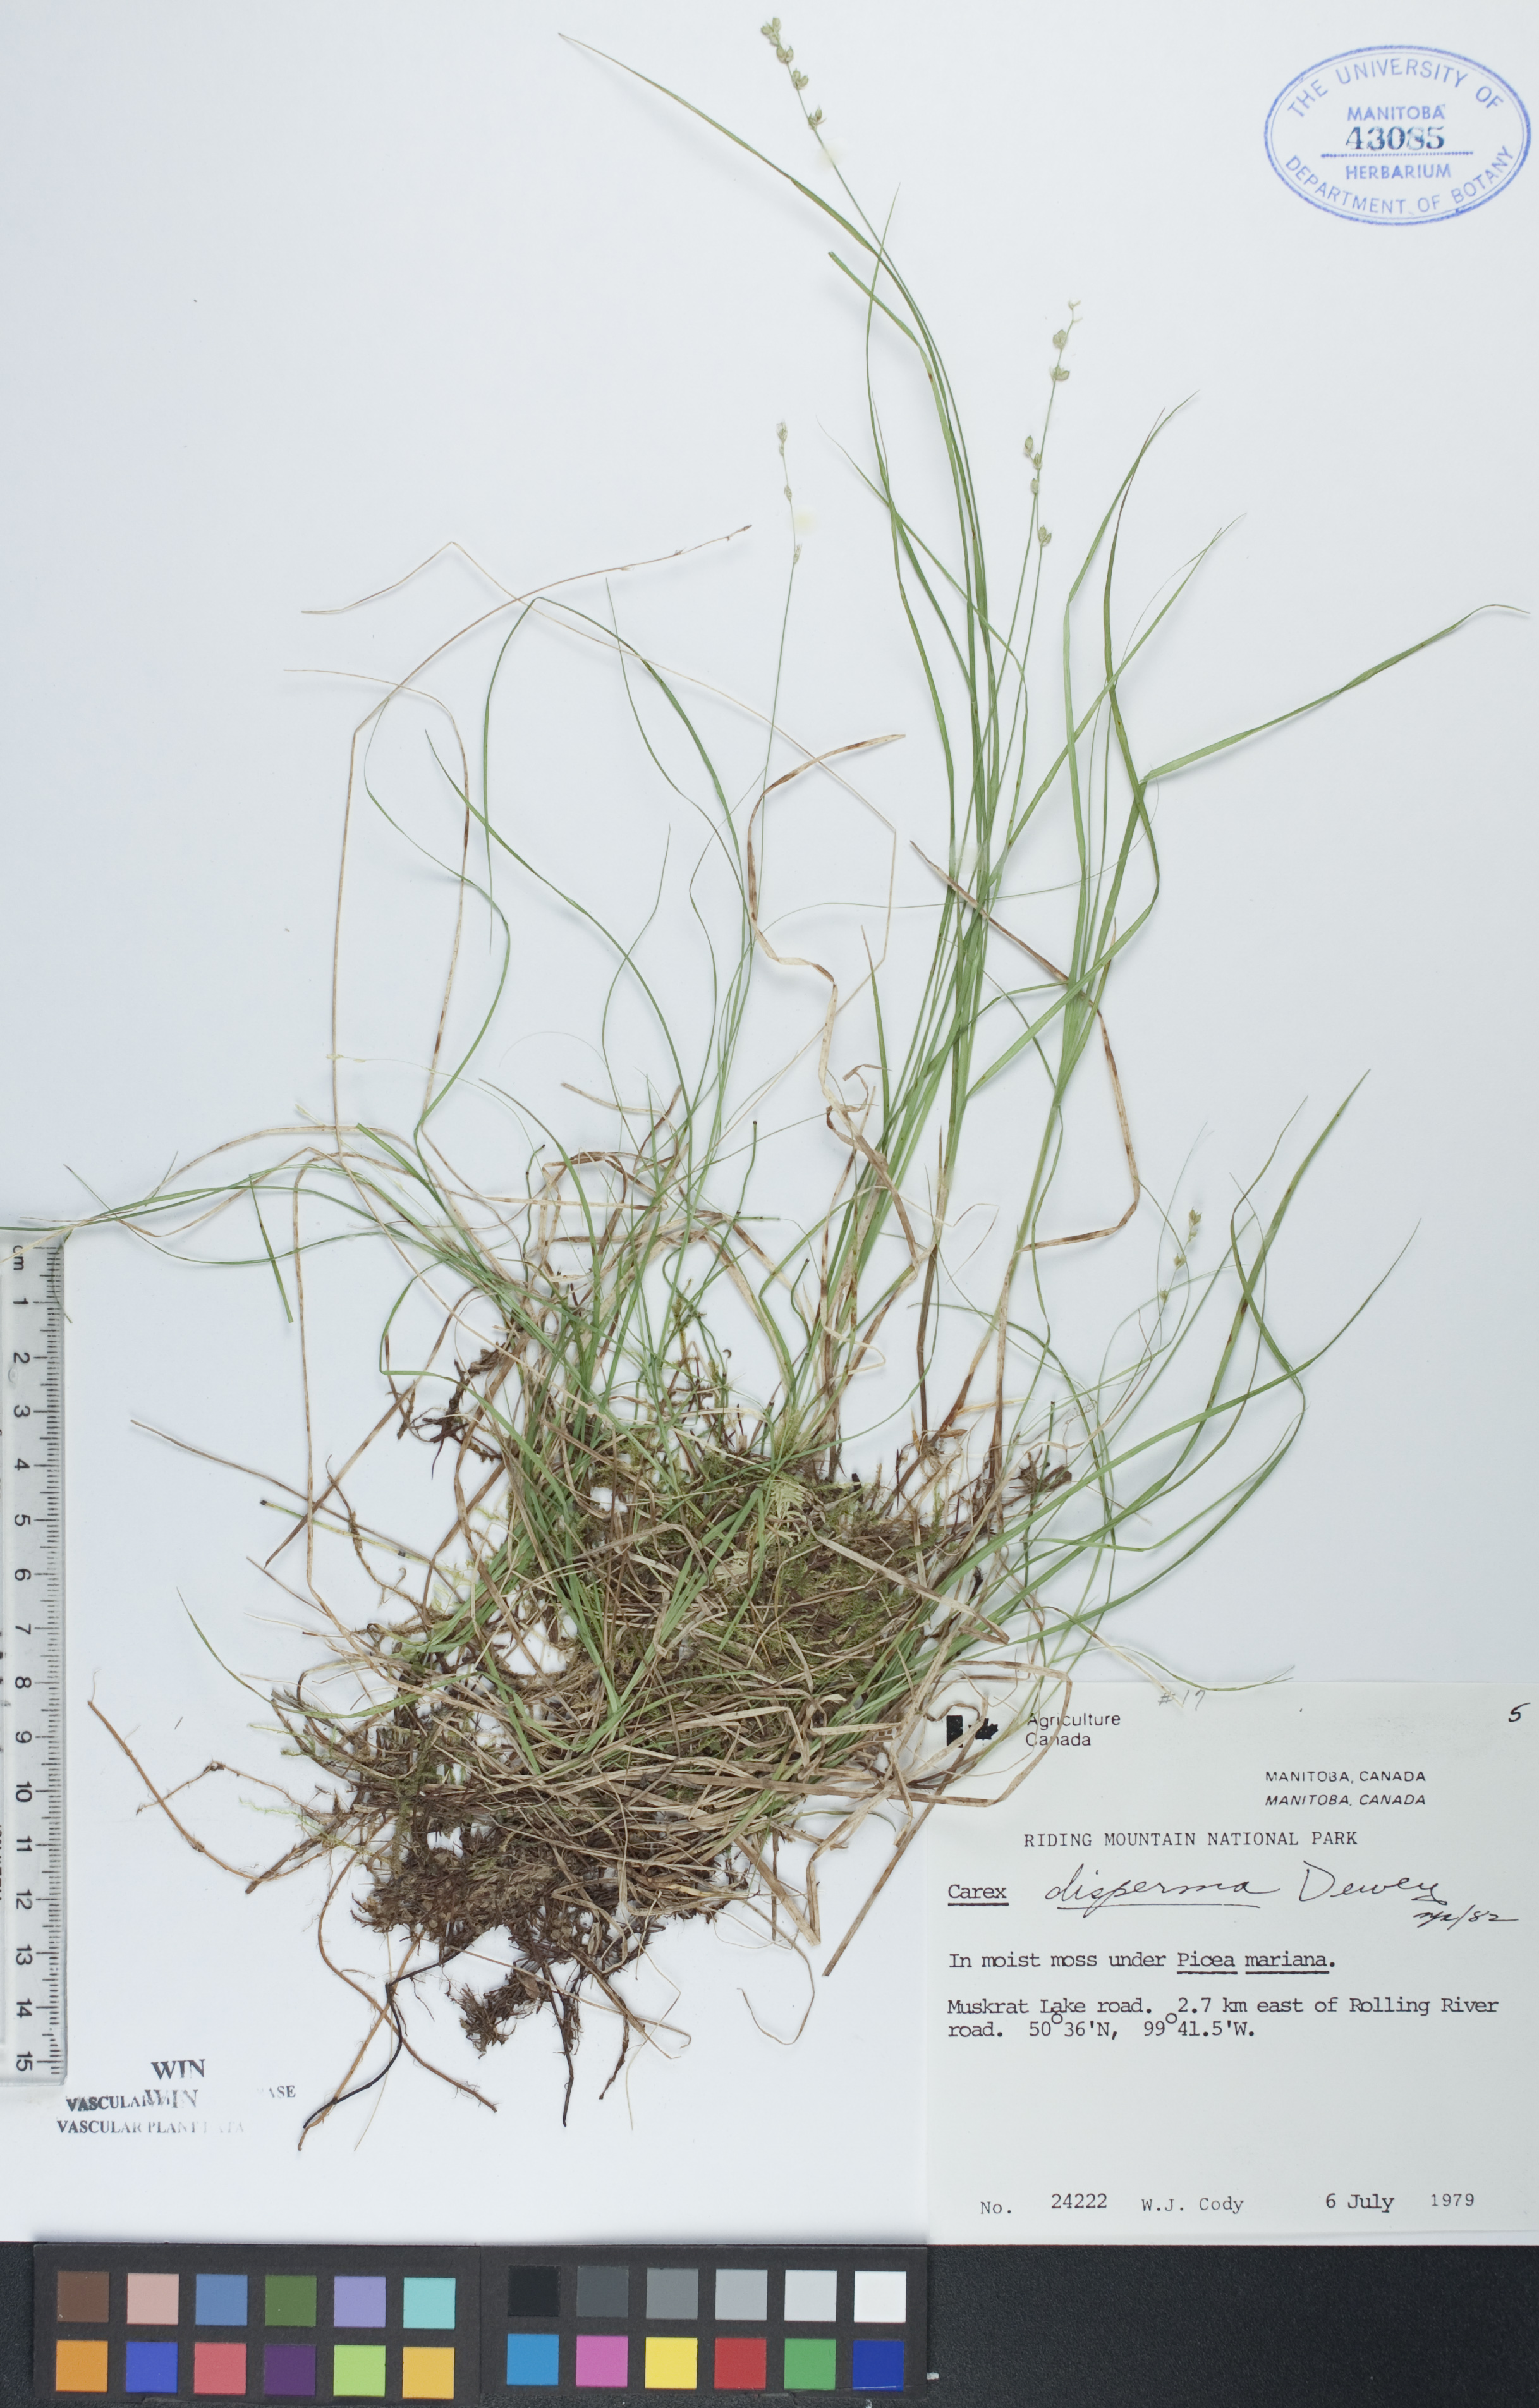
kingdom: Plantae
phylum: Tracheophyta
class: Liliopsida
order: Poales
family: Cyperaceae
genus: Carex
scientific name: Carex disperma
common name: Short-leaved sedge
